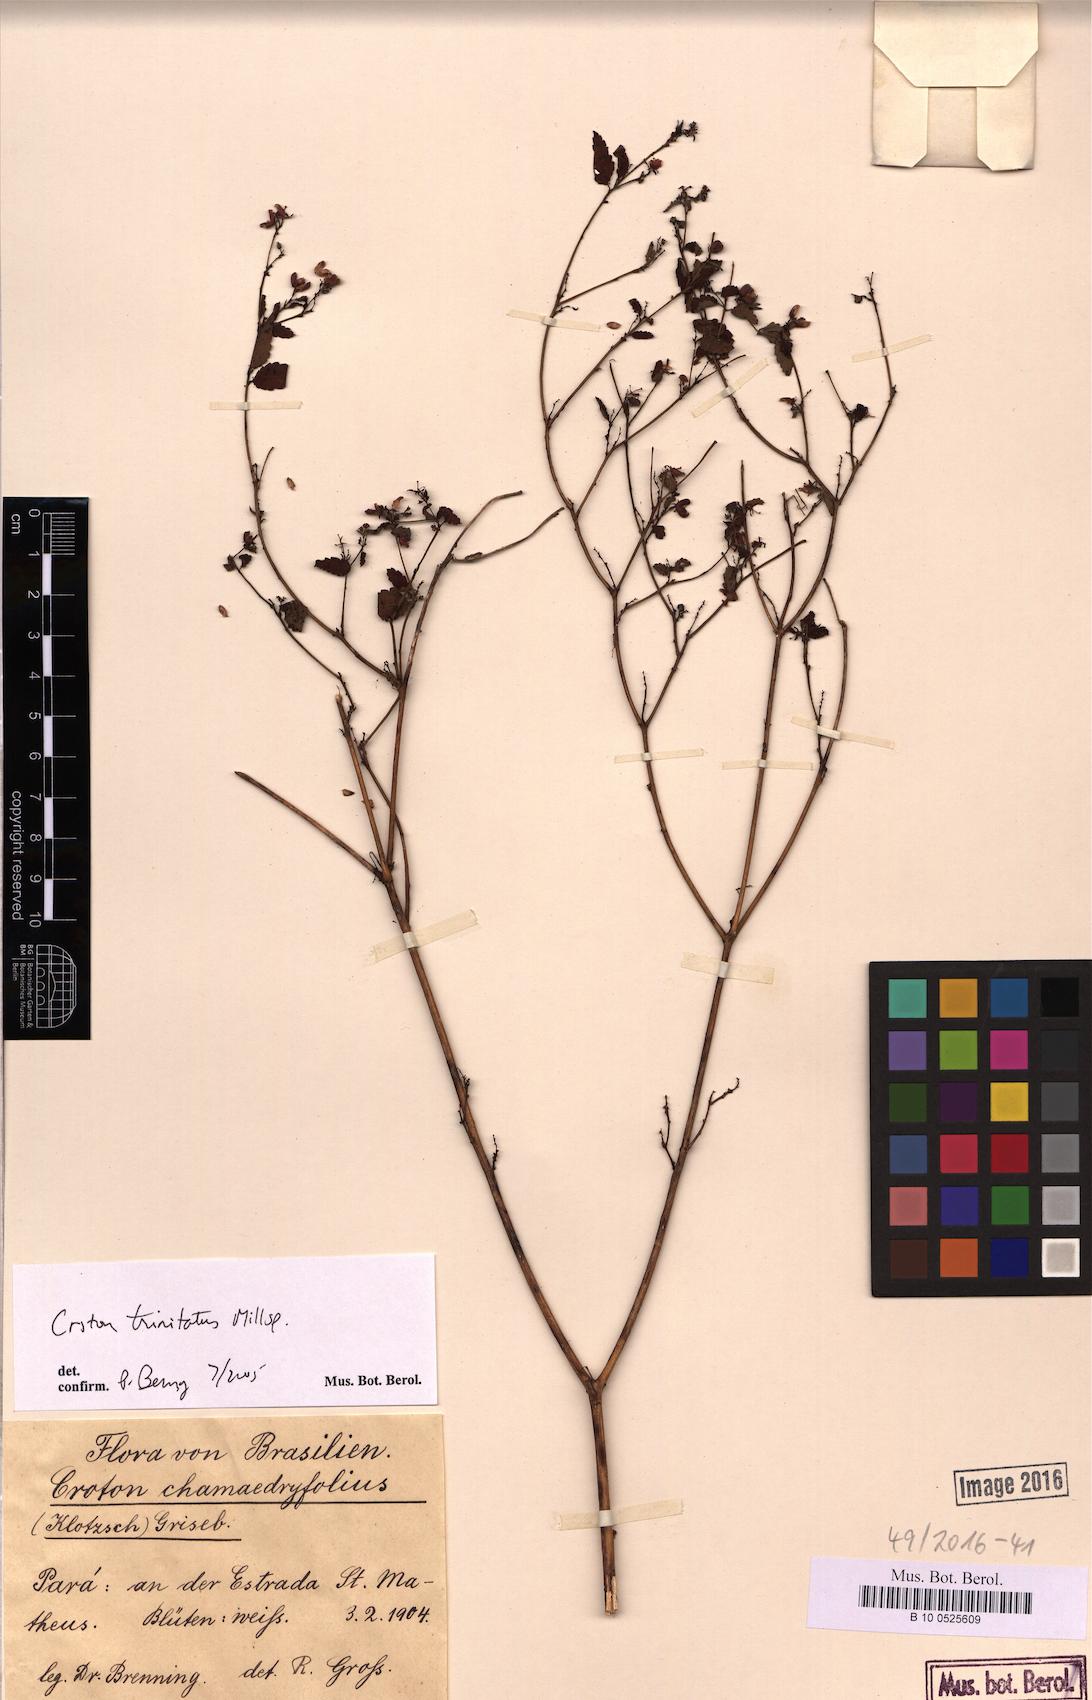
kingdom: Plantae
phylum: Tracheophyta
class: Magnoliopsida
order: Malpighiales
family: Euphorbiaceae
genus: Croton
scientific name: Croton trinitatis
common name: Roadside croton
